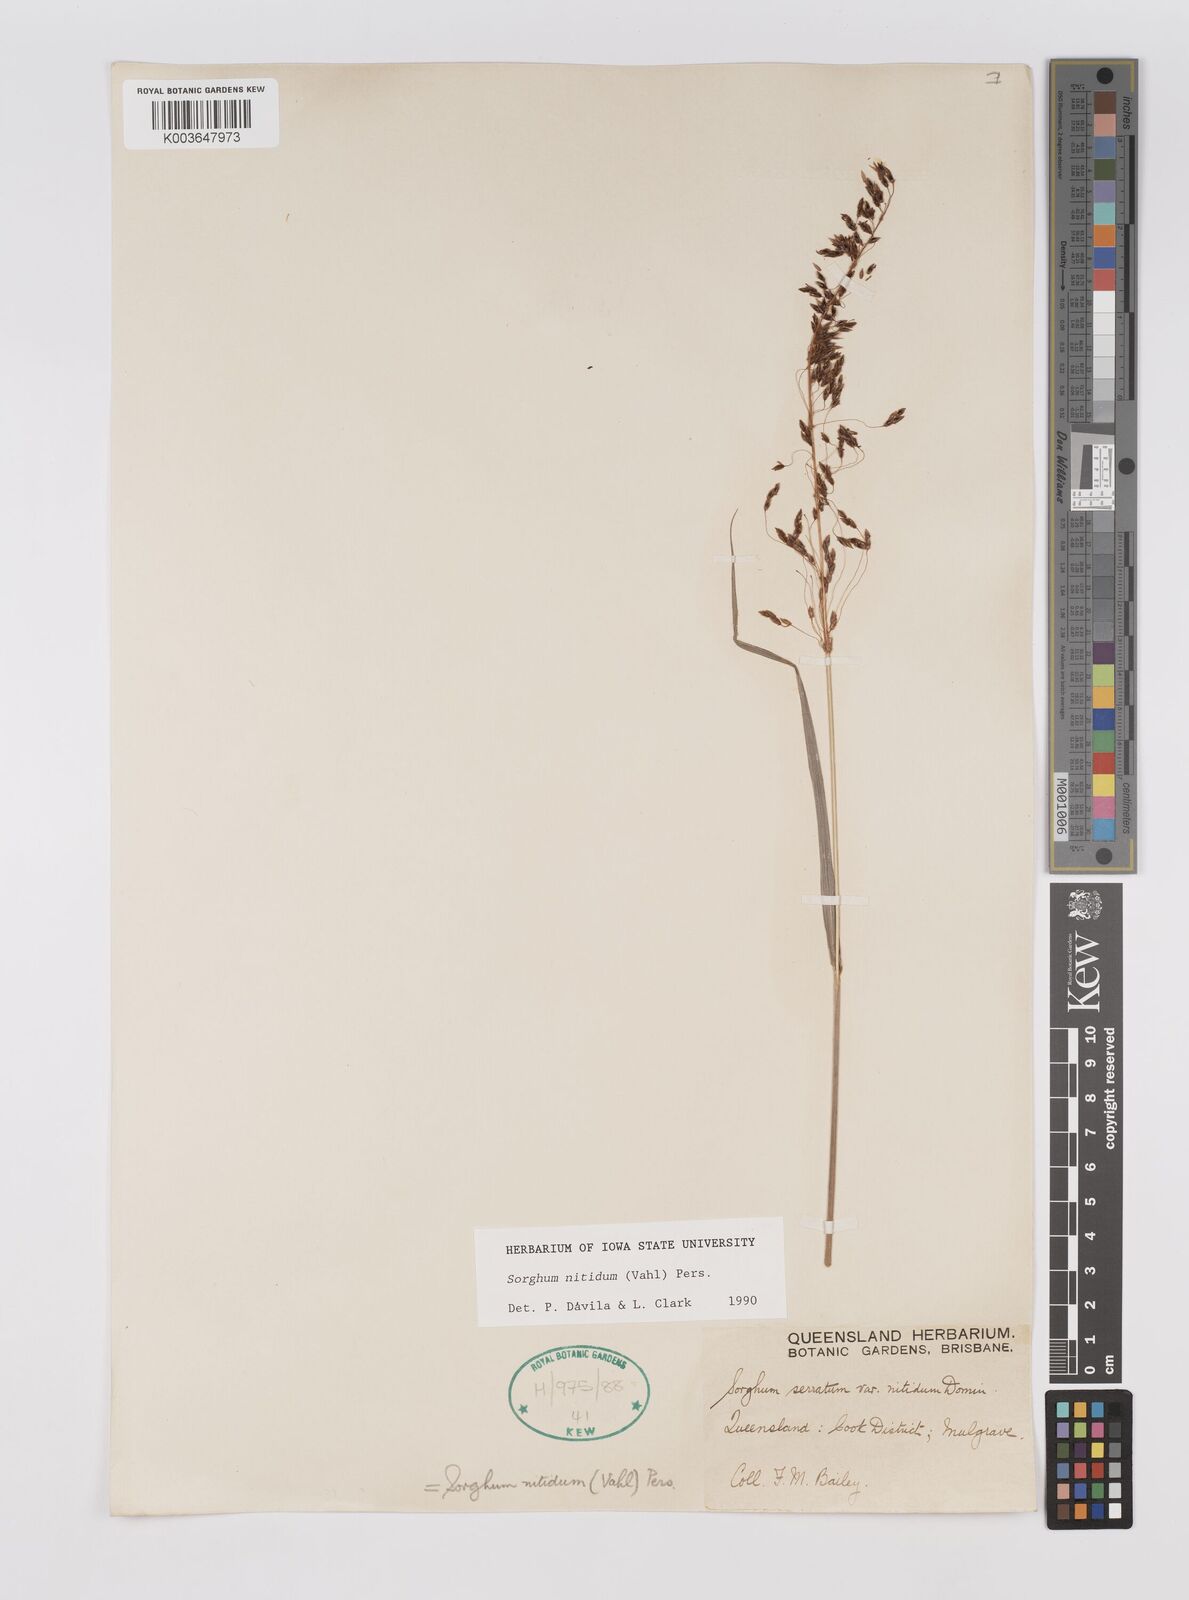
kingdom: Plantae
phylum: Tracheophyta
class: Liliopsida
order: Poales
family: Poaceae
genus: Sorghum
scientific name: Sorghum nitidum
